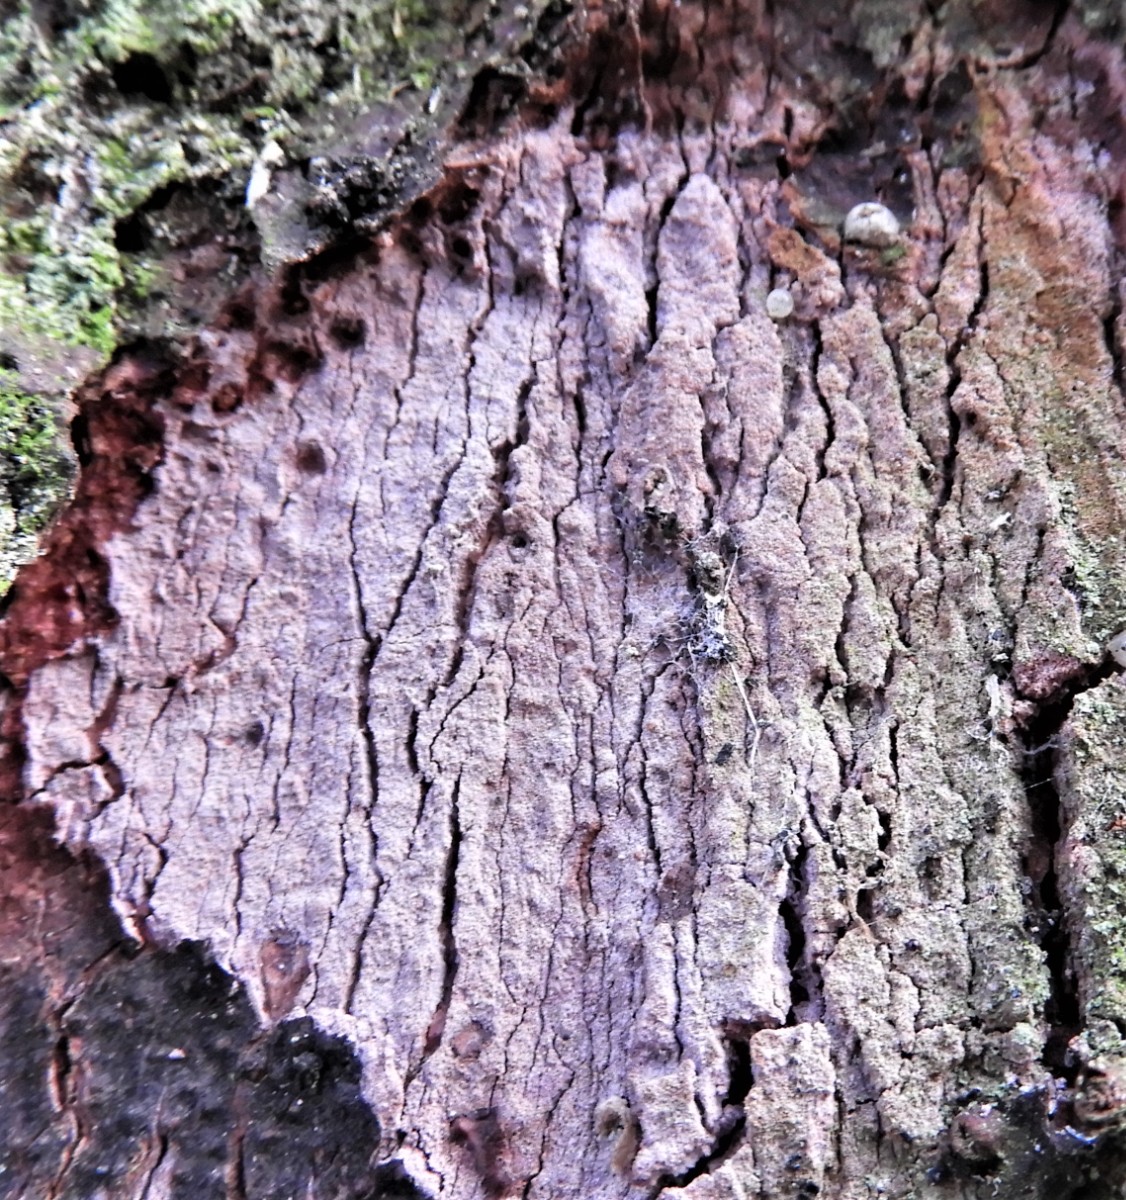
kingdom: Fungi
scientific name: Fungi
